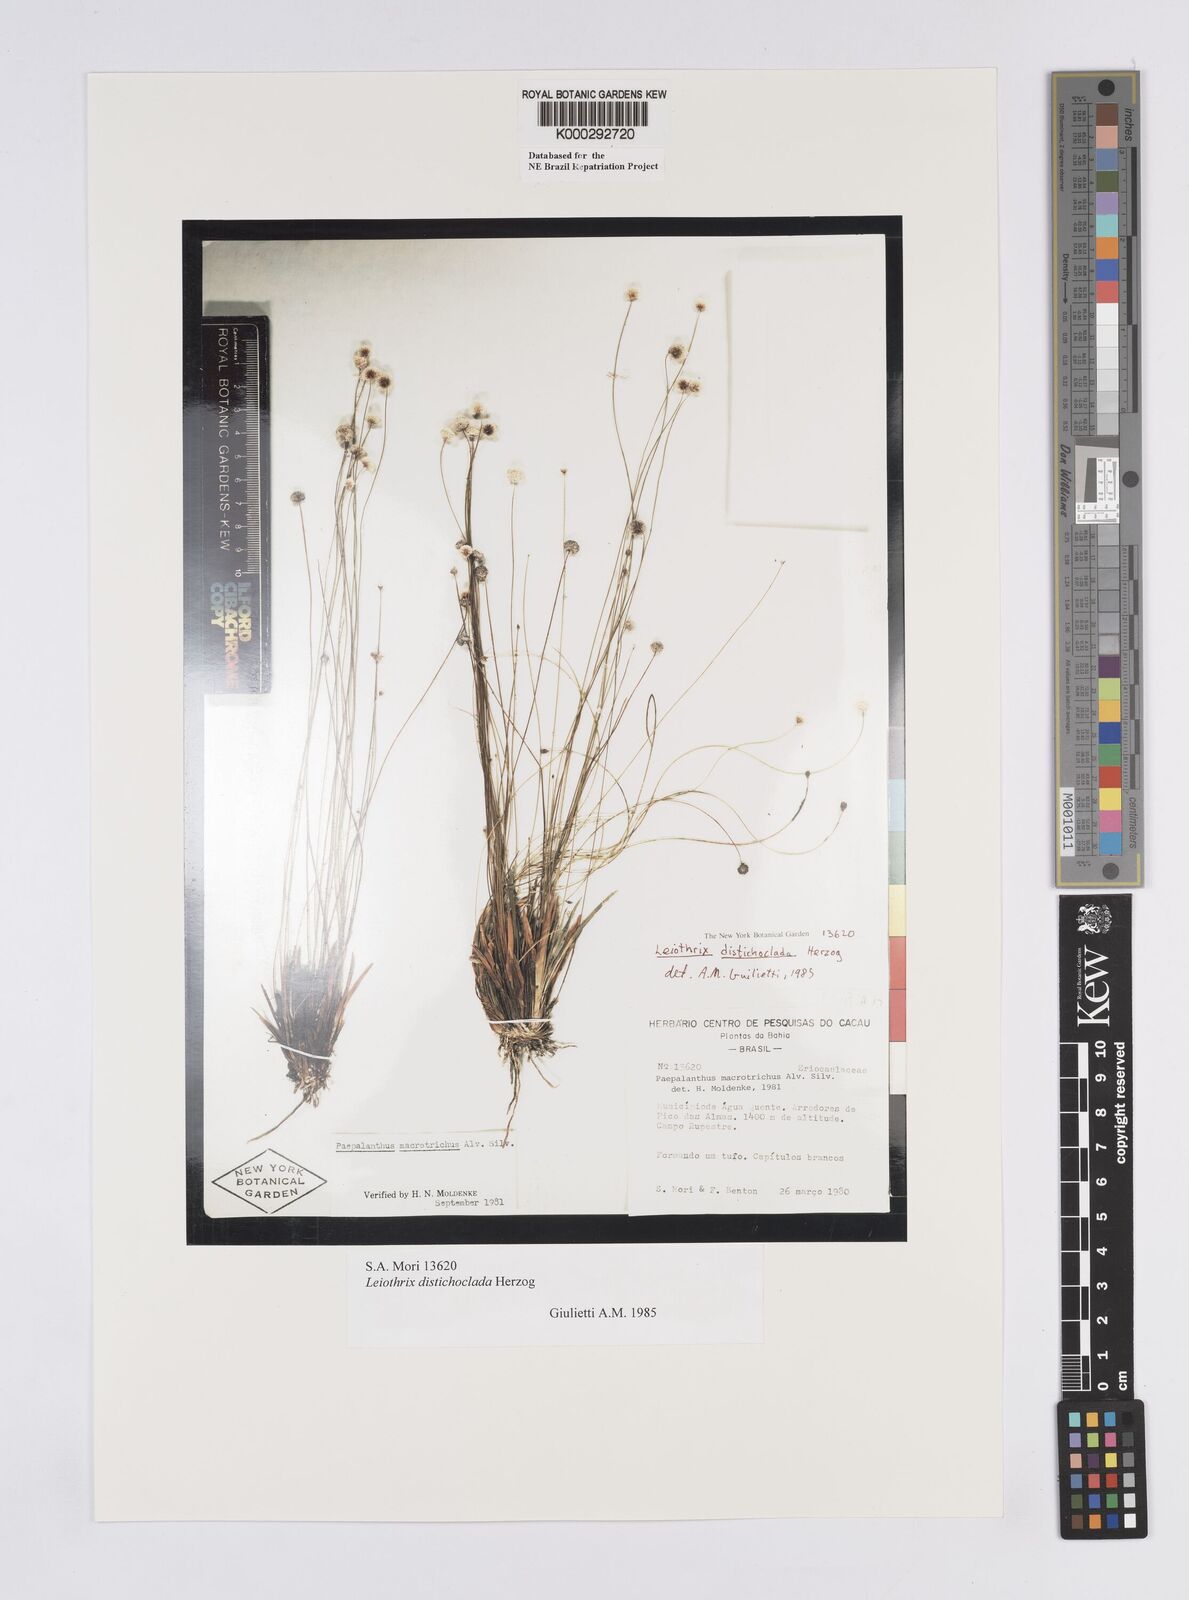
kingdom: Plantae
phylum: Tracheophyta
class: Liliopsida
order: Poales
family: Eriocaulaceae
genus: Leiothrix
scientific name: Leiothrix distichoclada
